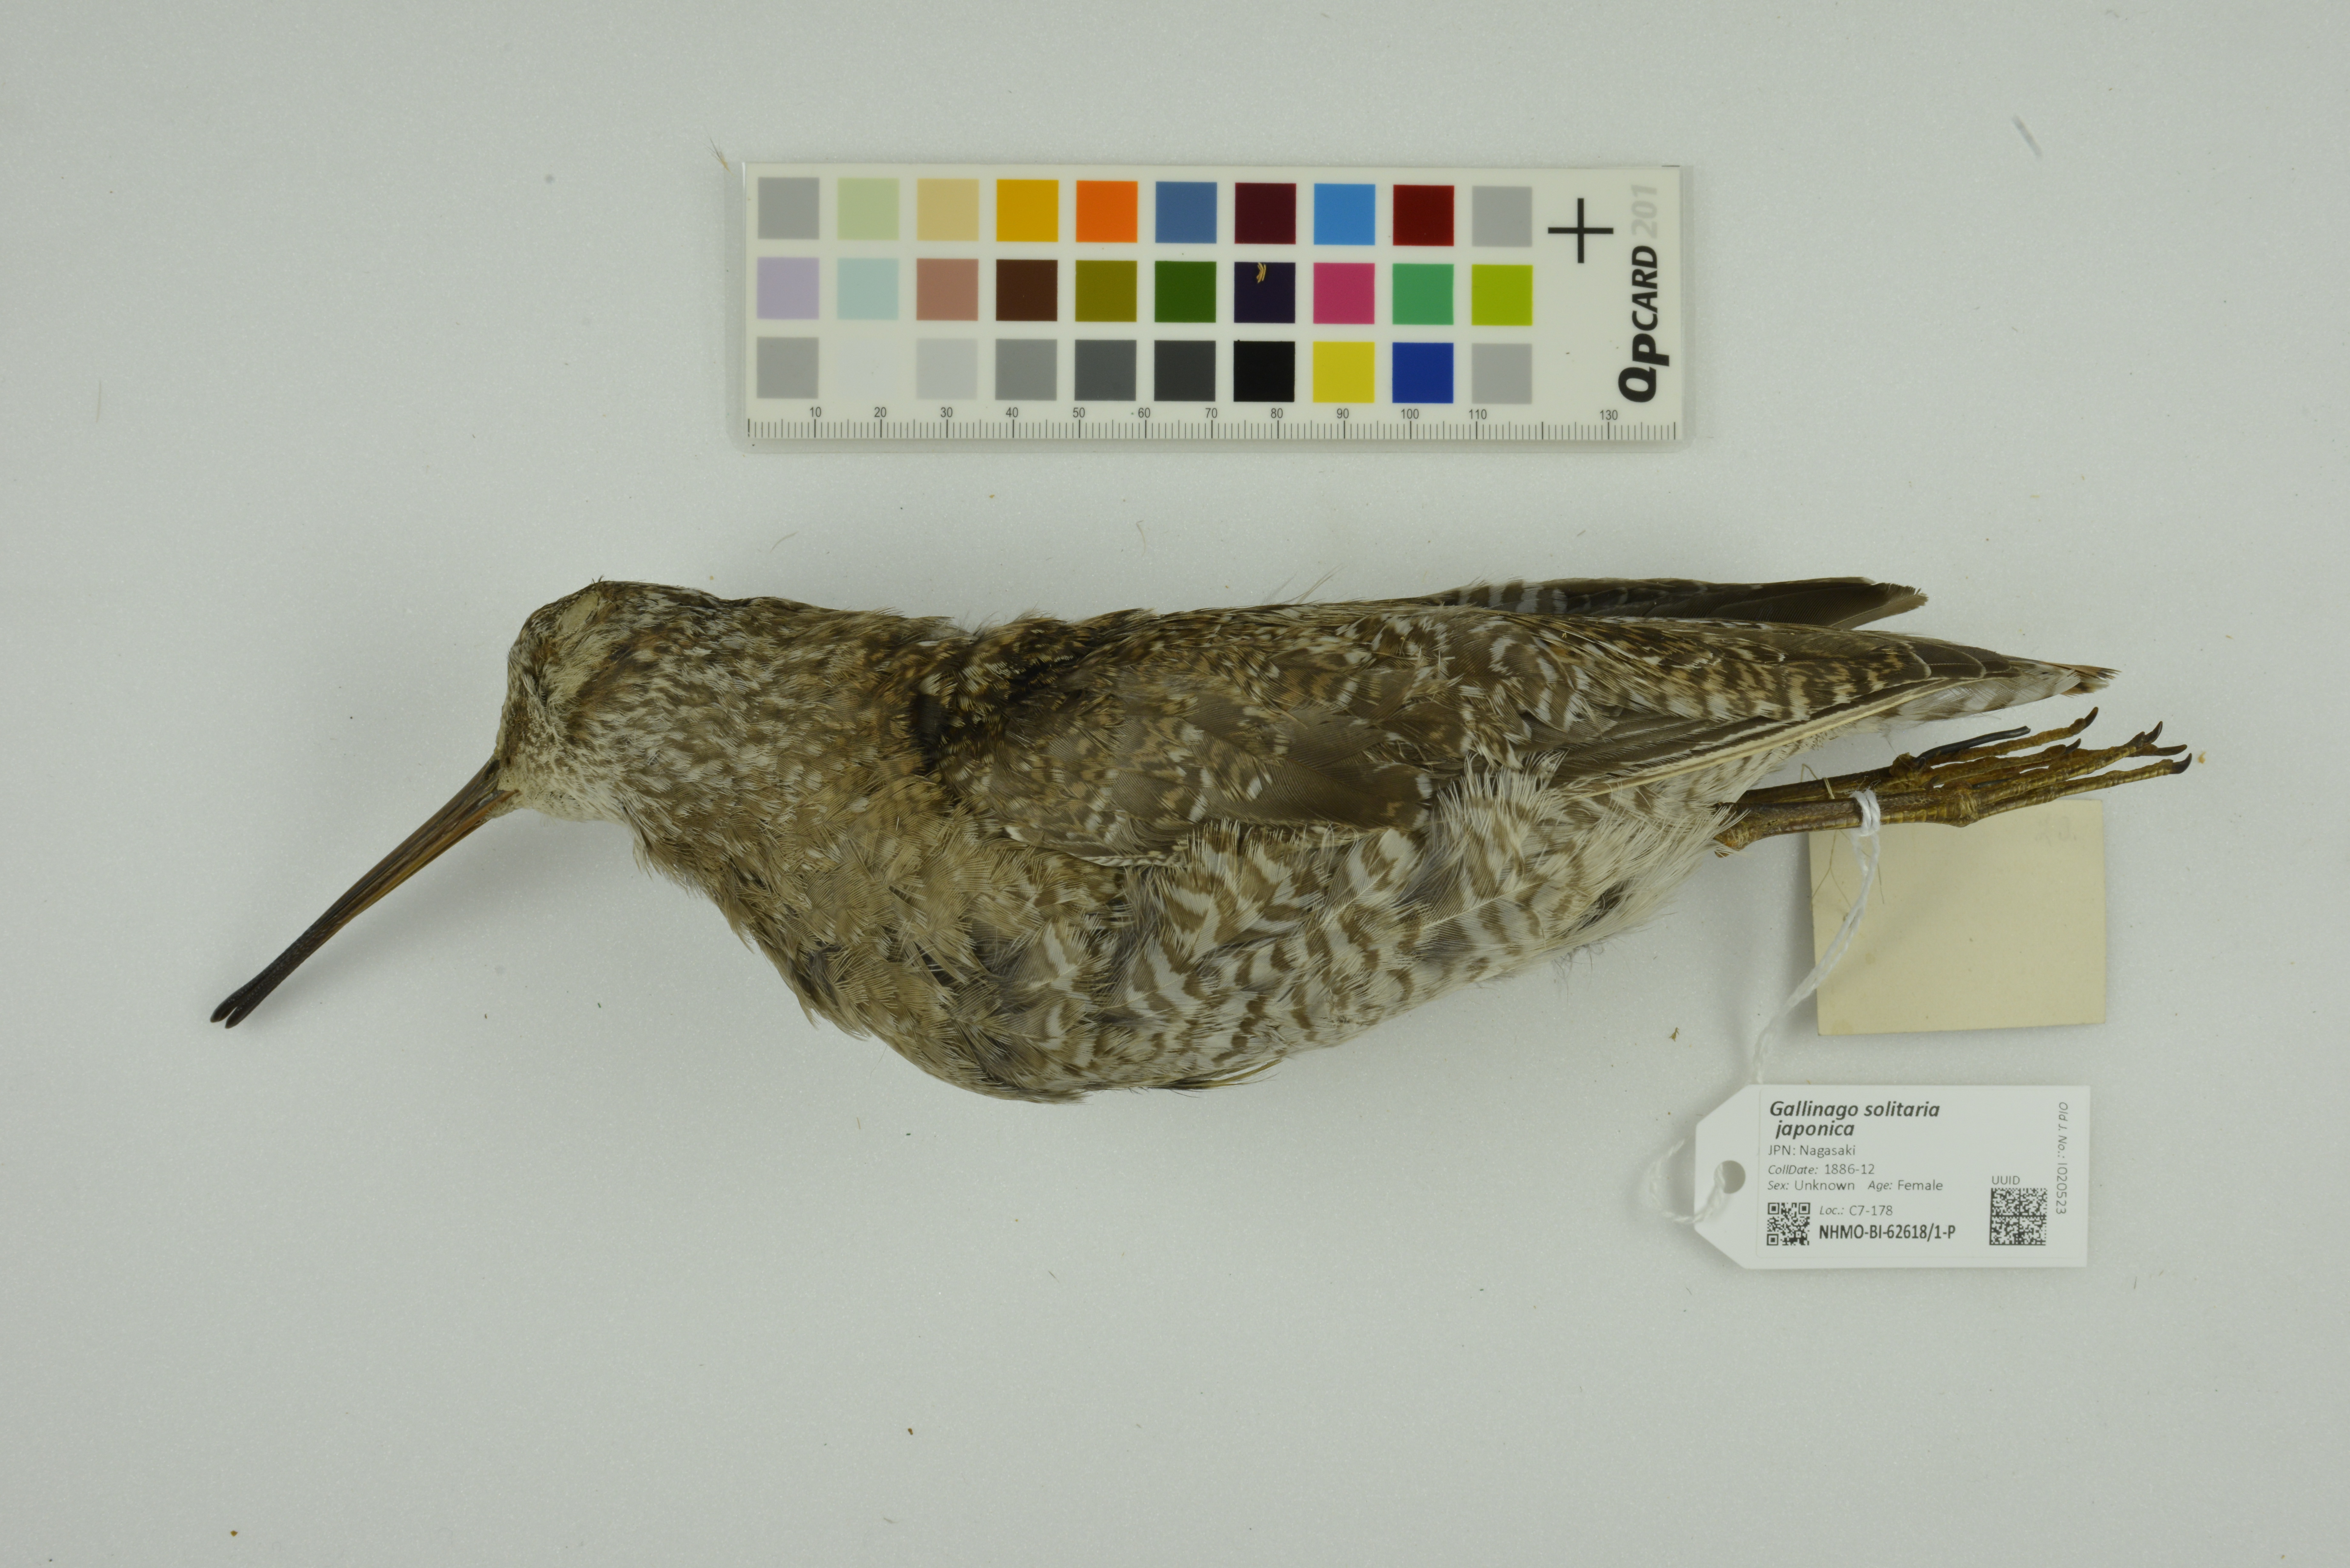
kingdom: Animalia
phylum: Chordata
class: Aves
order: Charadriiformes
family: Scolopacidae
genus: Gallinago
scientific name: Gallinago solitaria
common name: Solitary snipe
